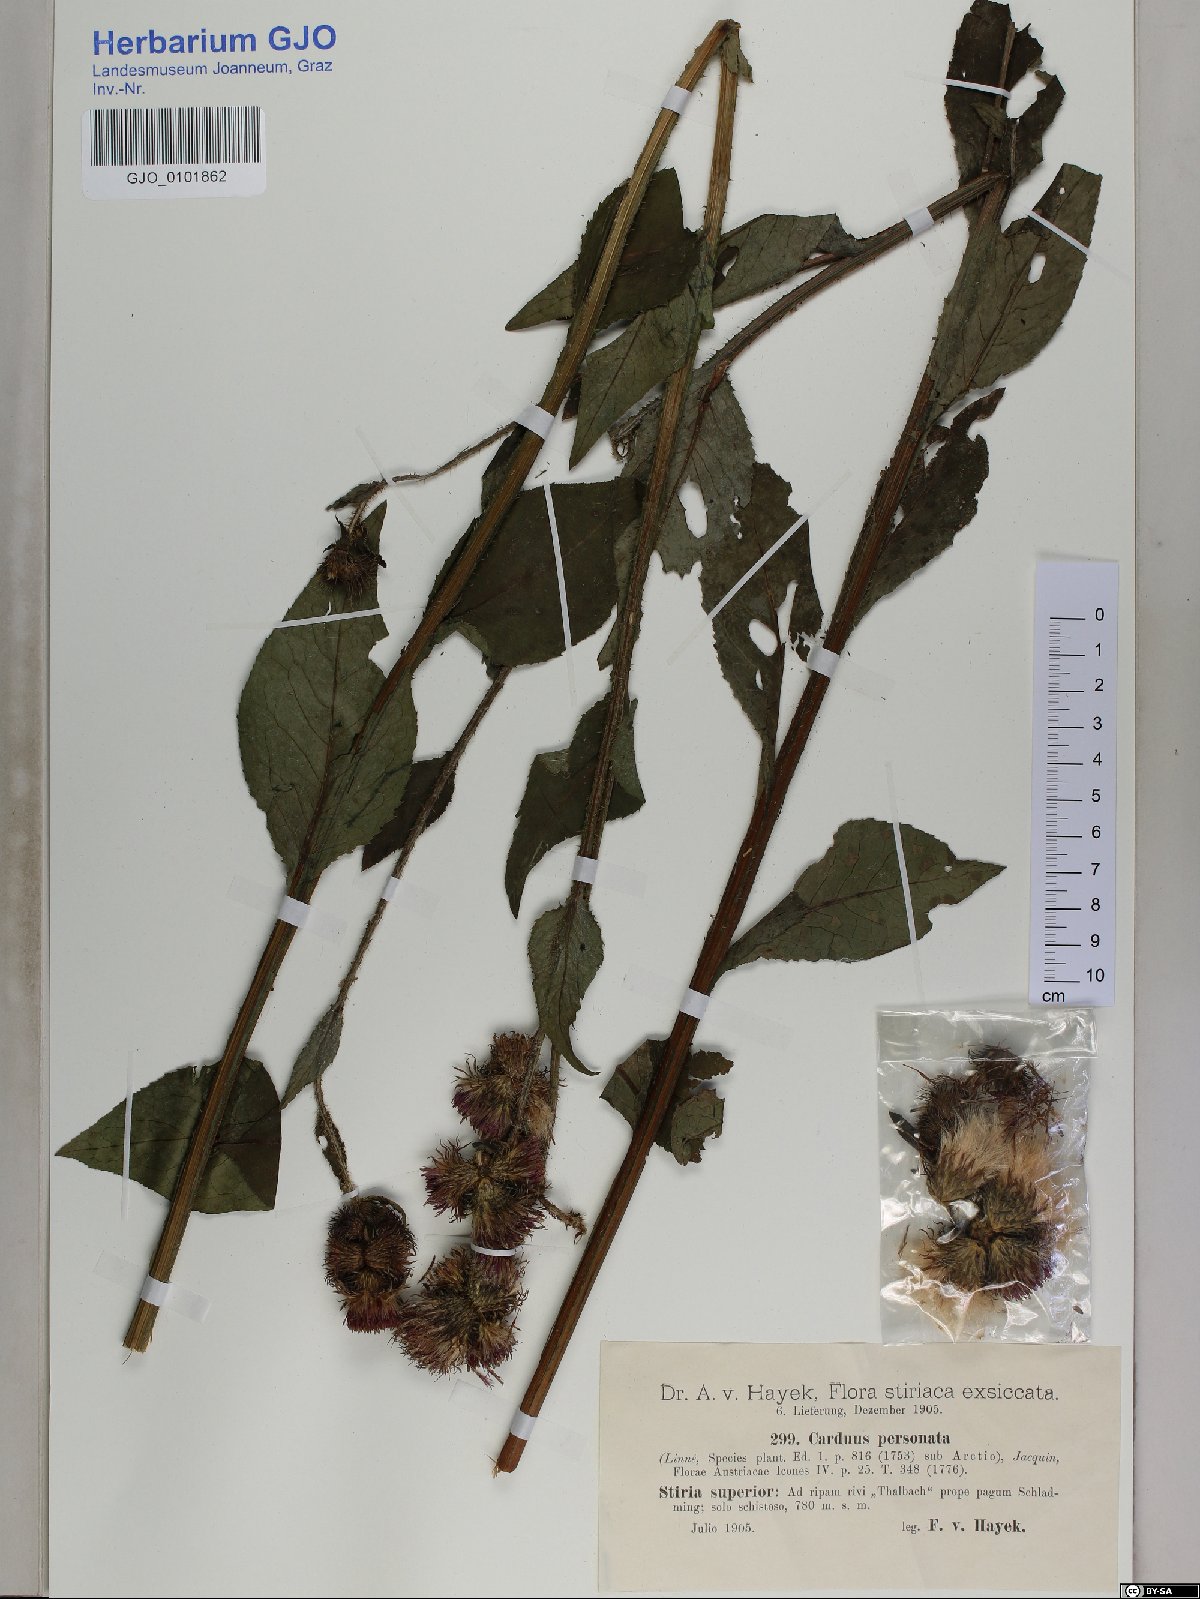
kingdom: Plantae
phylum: Tracheophyta
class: Magnoliopsida
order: Asterales
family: Asteraceae
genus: Carduus
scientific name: Carduus personata
